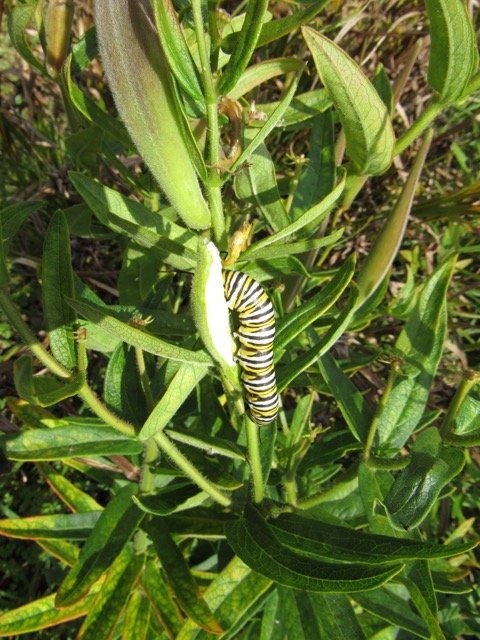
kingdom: Animalia
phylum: Arthropoda
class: Insecta
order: Lepidoptera
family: Nymphalidae
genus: Danaus
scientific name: Danaus plexippus
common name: Monarch
